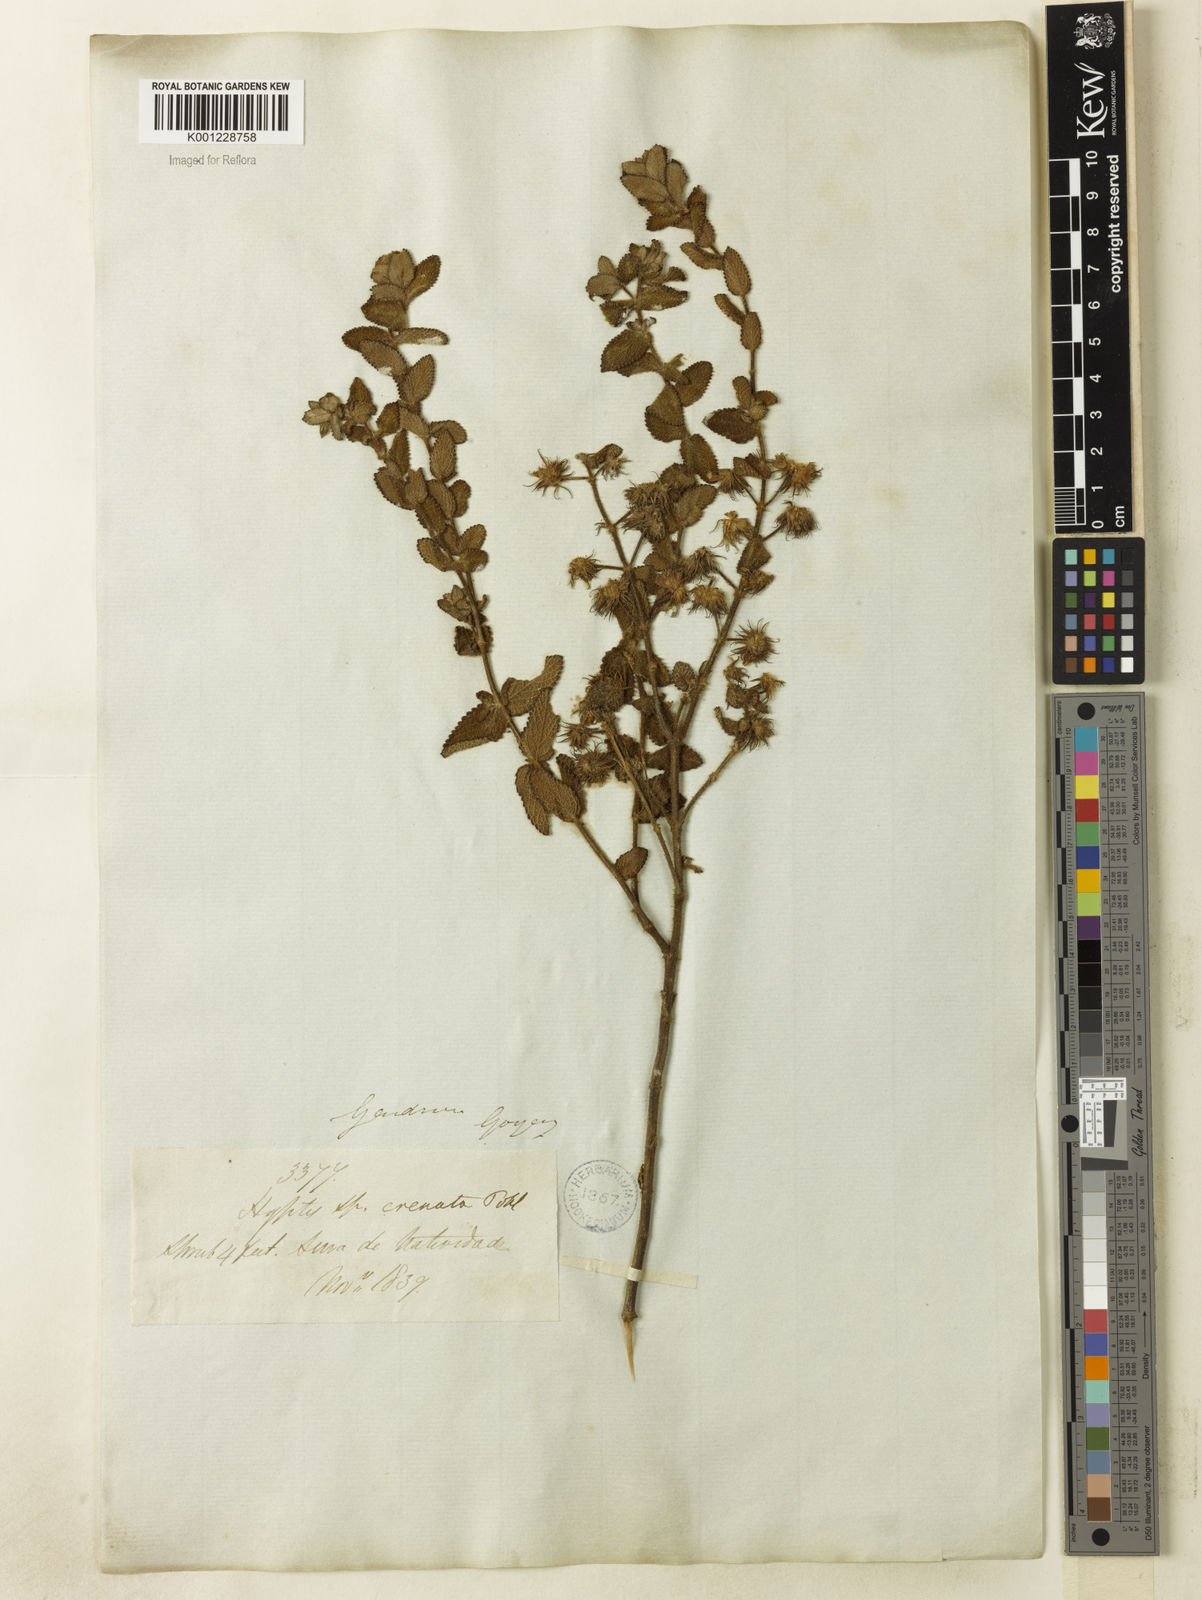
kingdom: Plantae
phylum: Tracheophyta
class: Magnoliopsida
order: Lamiales
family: Lamiaceae
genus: Hyptis
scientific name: Hyptis crenata
